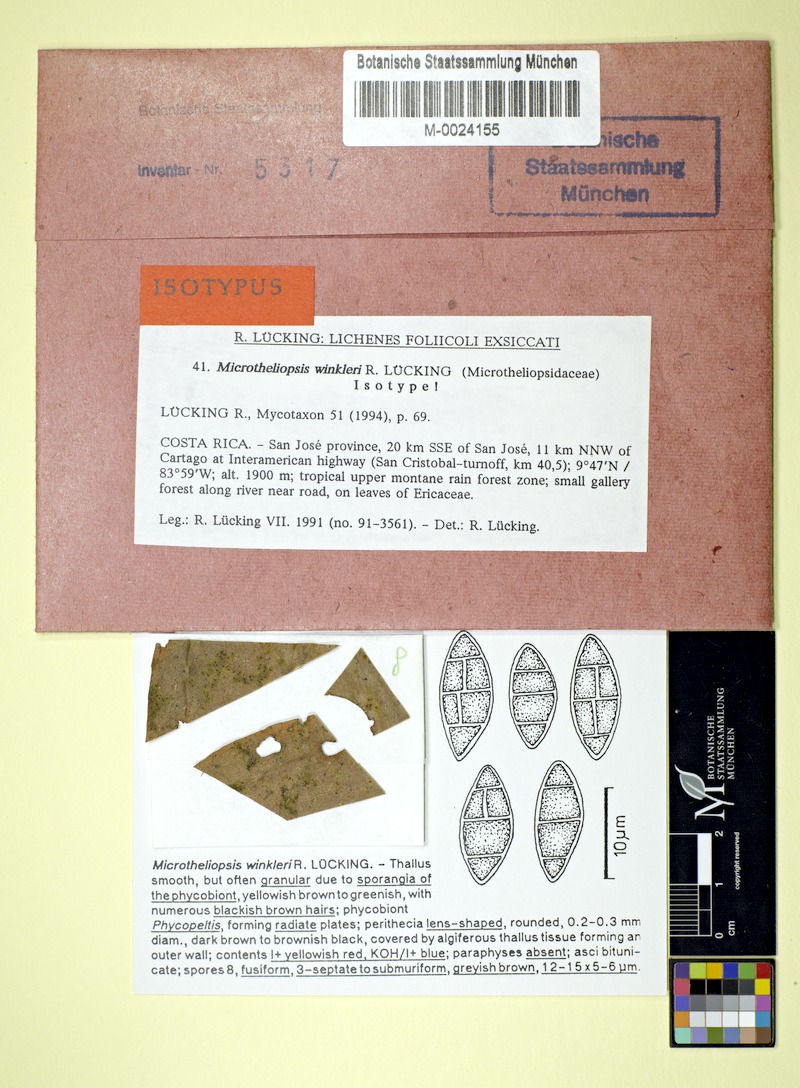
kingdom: Fungi
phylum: Ascomycota
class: Eurotiomycetes
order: Chaetothyriales
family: Microtheliopsidaceae
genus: Microtheliopsis
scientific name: Microtheliopsis winkleri
